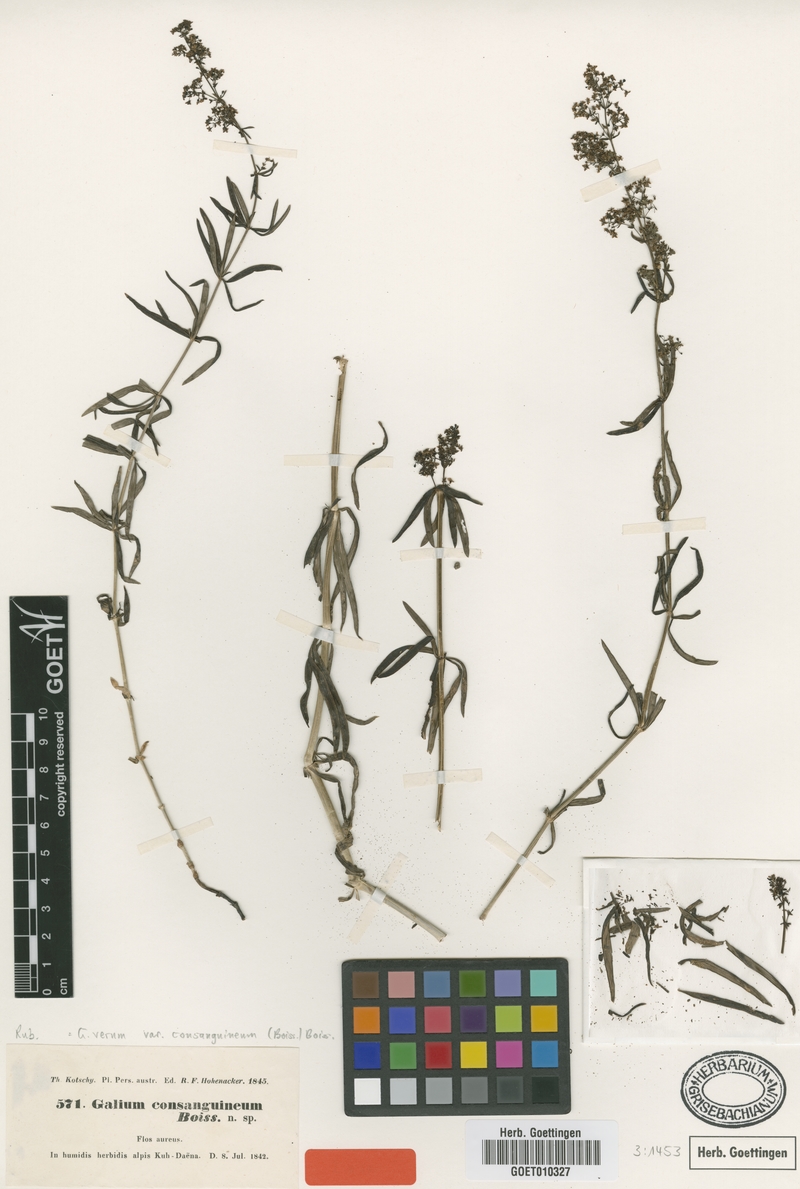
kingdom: Plantae
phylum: Tracheophyta
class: Magnoliopsida
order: Gentianales
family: Rubiaceae
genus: Galium
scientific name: Galium consanguineum
